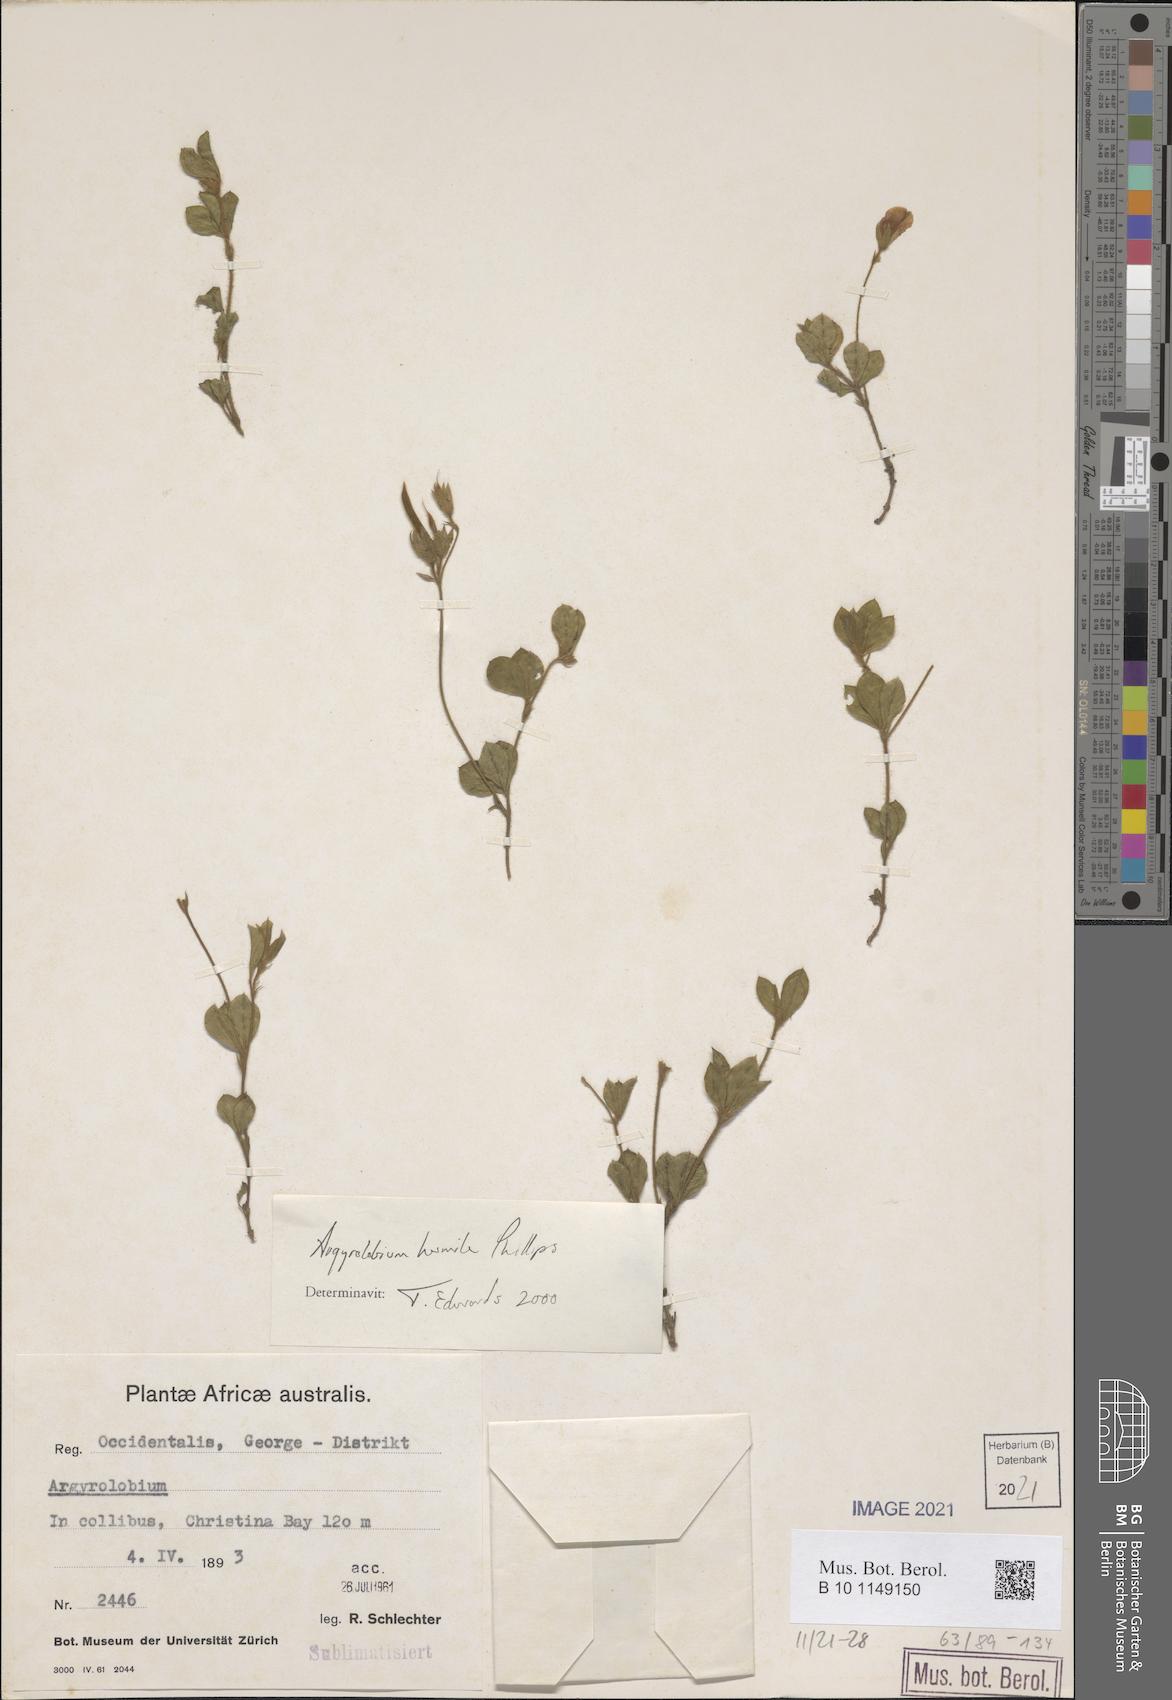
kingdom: Plantae
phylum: Tracheophyta
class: Magnoliopsida
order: Fabales
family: Fabaceae
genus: Argyrolobium
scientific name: Argyrolobium humile
